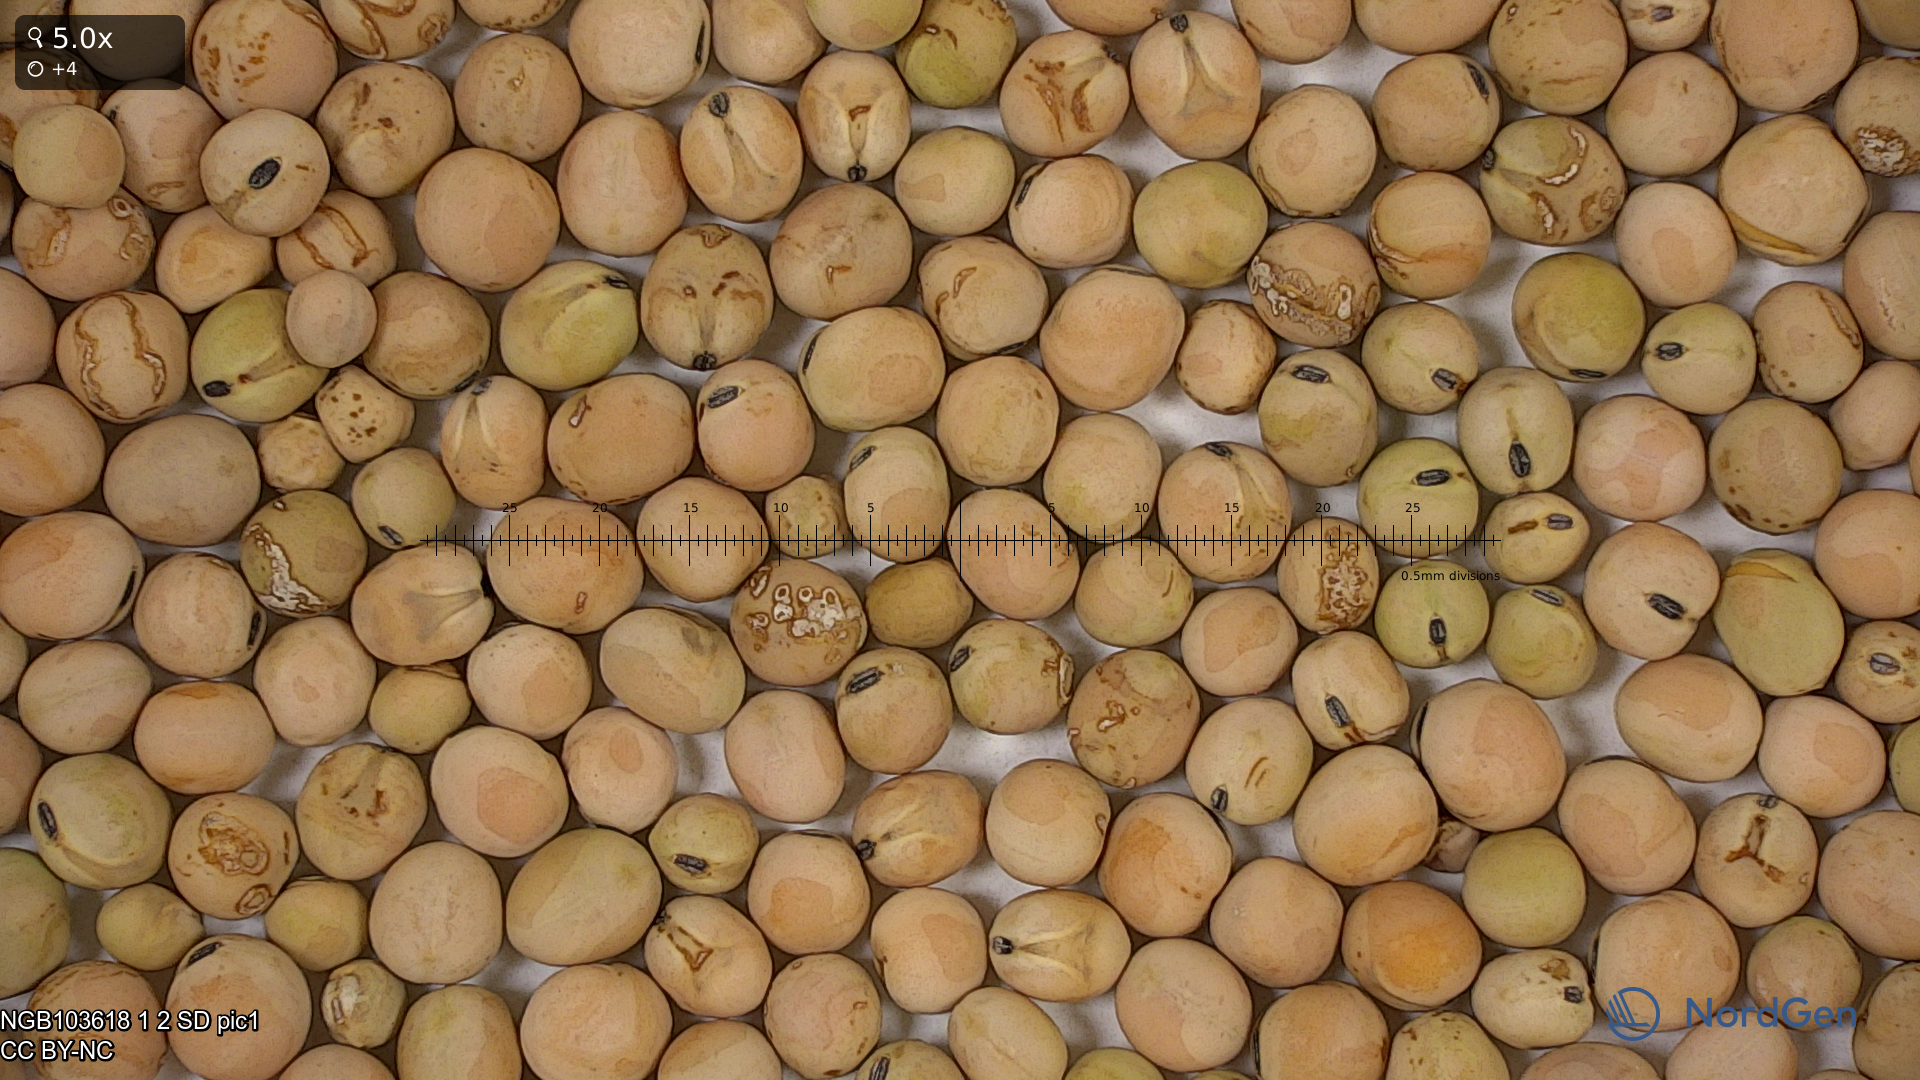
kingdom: Plantae
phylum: Tracheophyta
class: Magnoliopsida
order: Fabales
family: Fabaceae
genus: Lathyrus
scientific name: Lathyrus oleraceus
